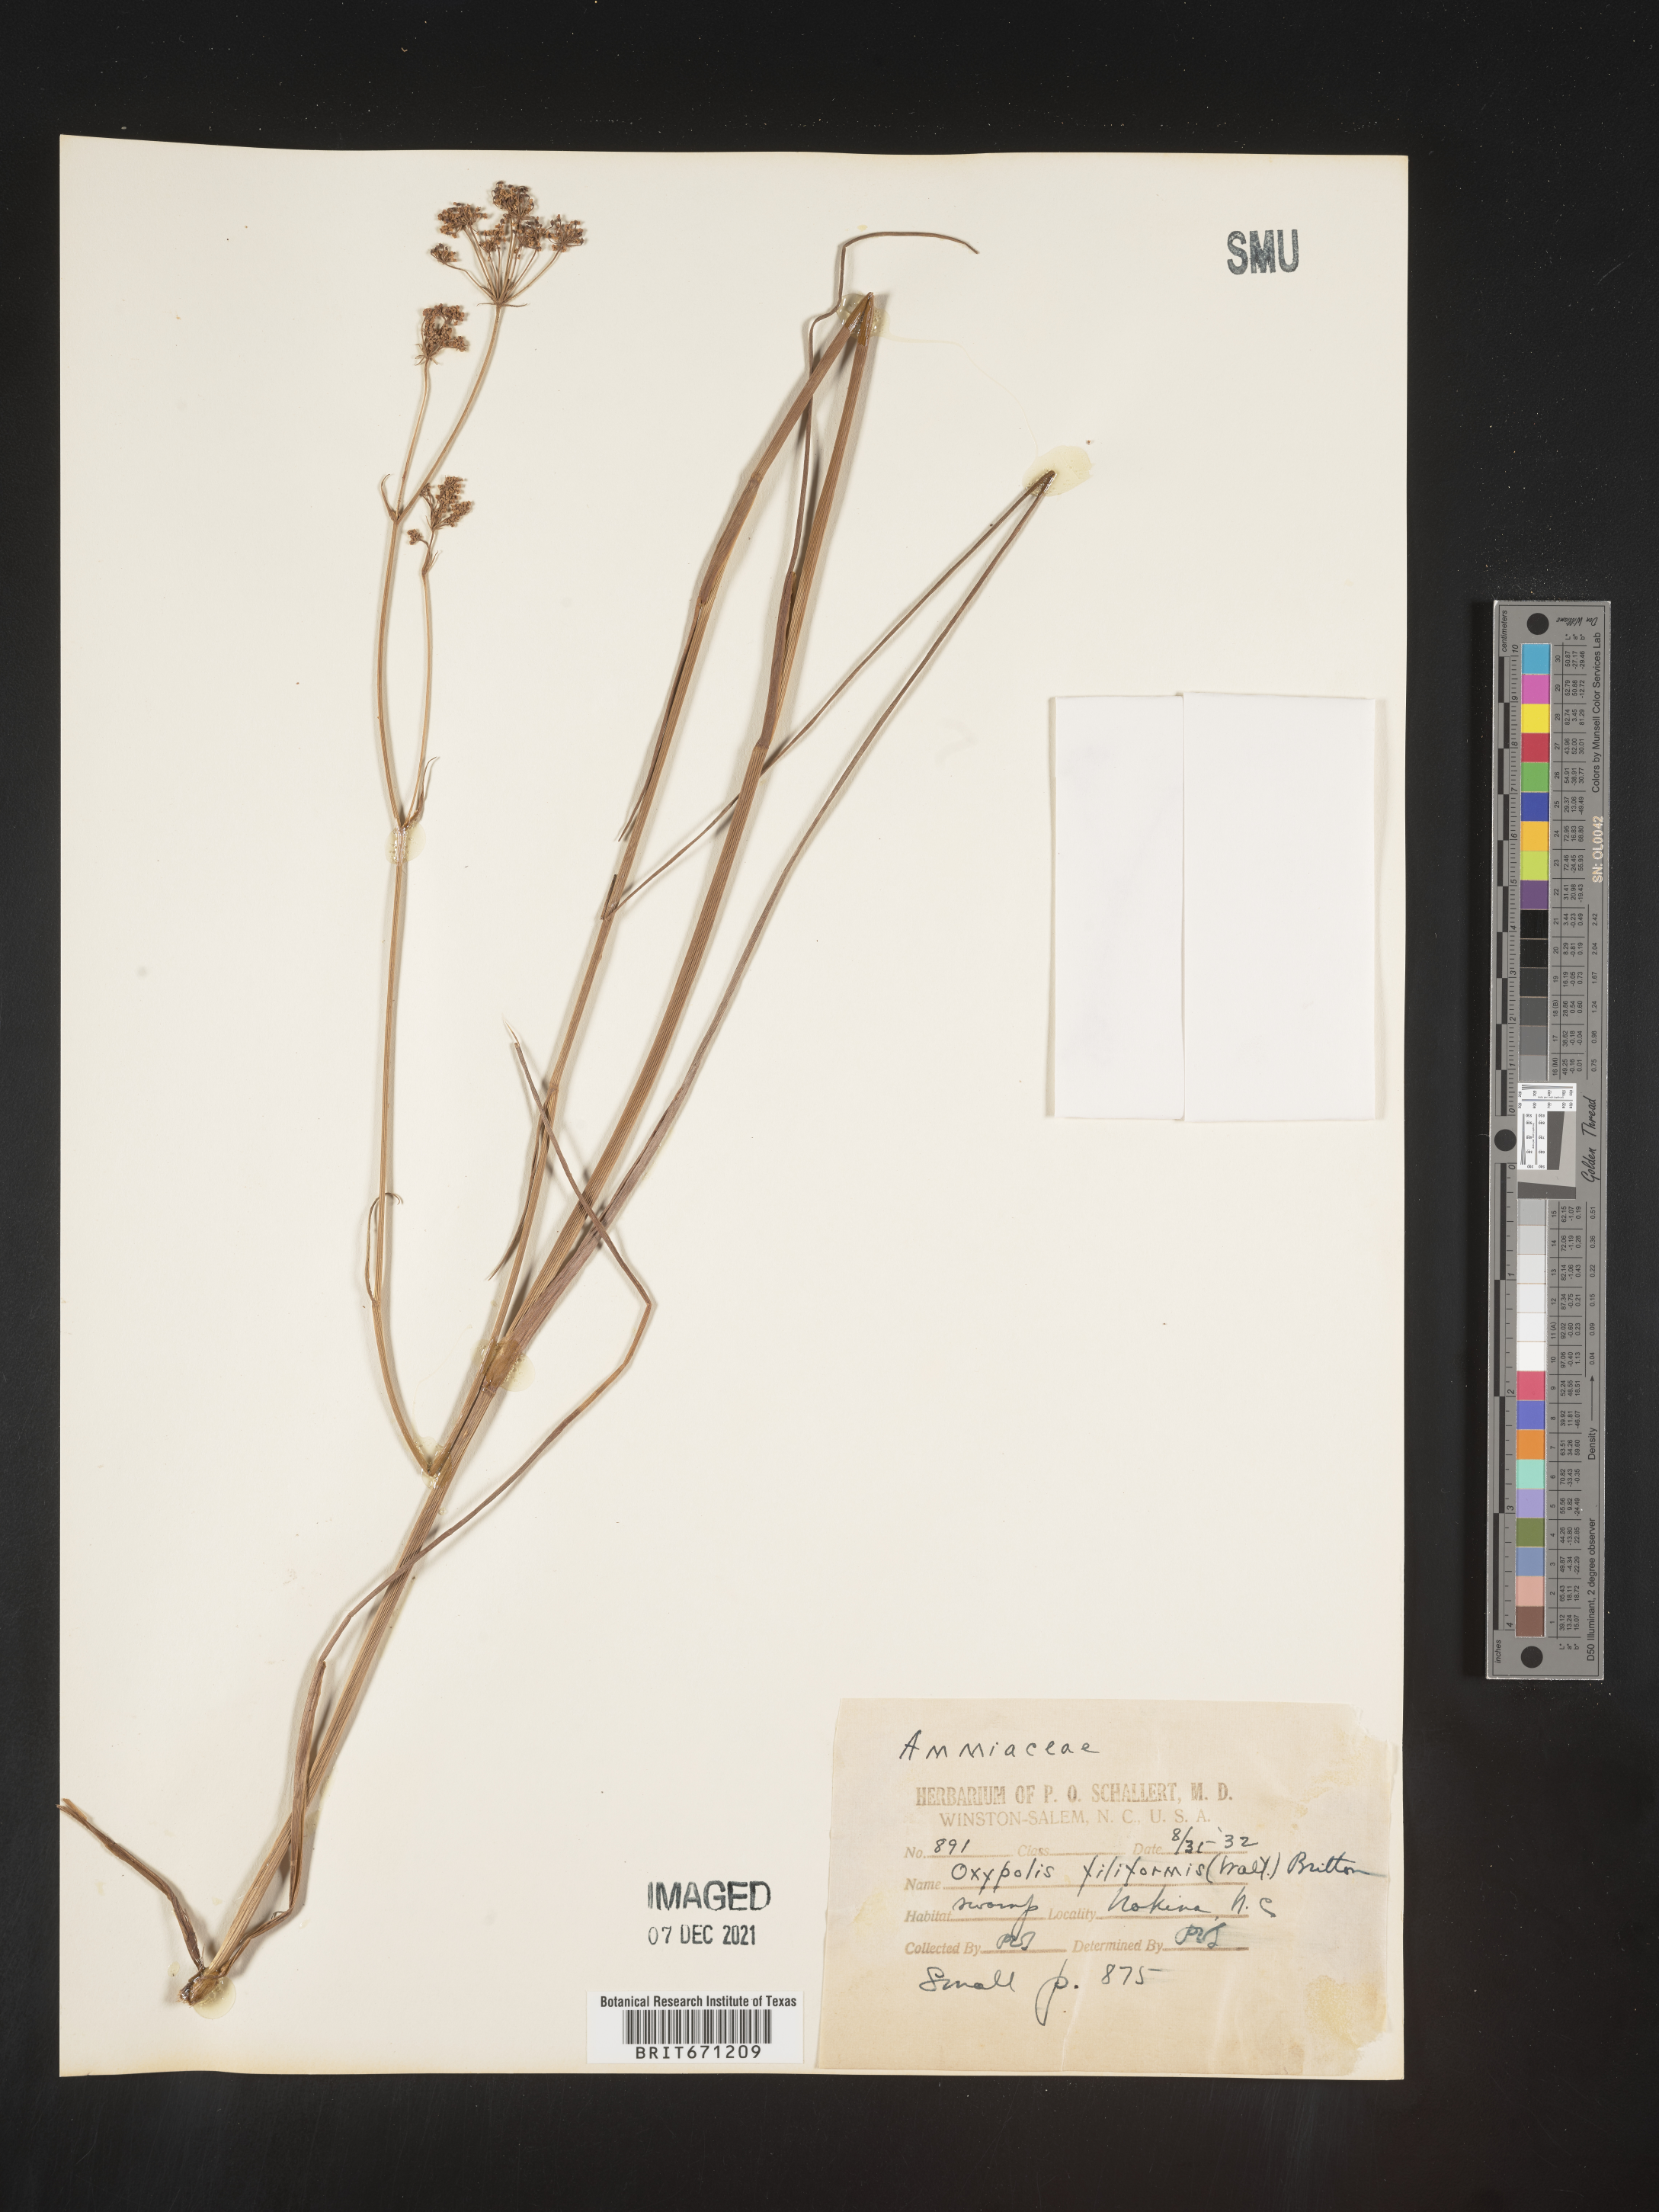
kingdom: Plantae
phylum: Tracheophyta
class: Magnoliopsida
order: Apiales
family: Apiaceae
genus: Tiedemannia
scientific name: Tiedemannia filiformis
